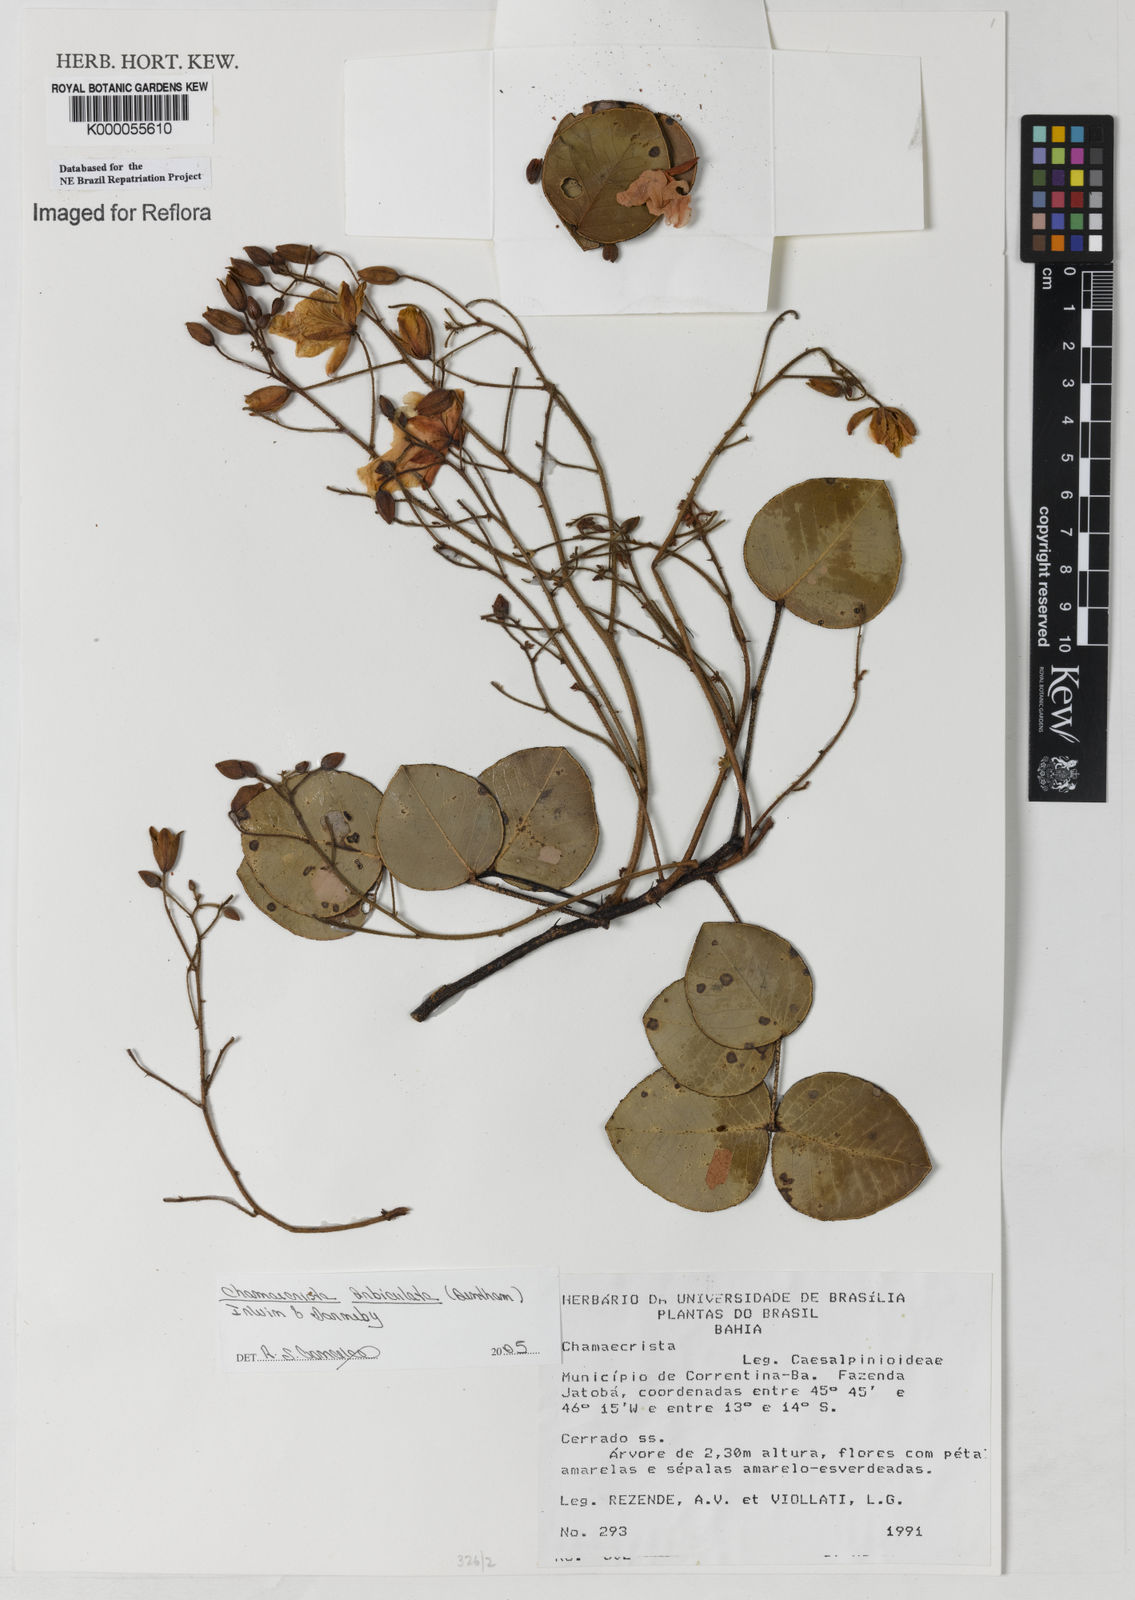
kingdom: Plantae
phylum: Tracheophyta
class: Magnoliopsida
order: Fabales
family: Fabaceae
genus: Chamaecrista
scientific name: Chamaecrista
